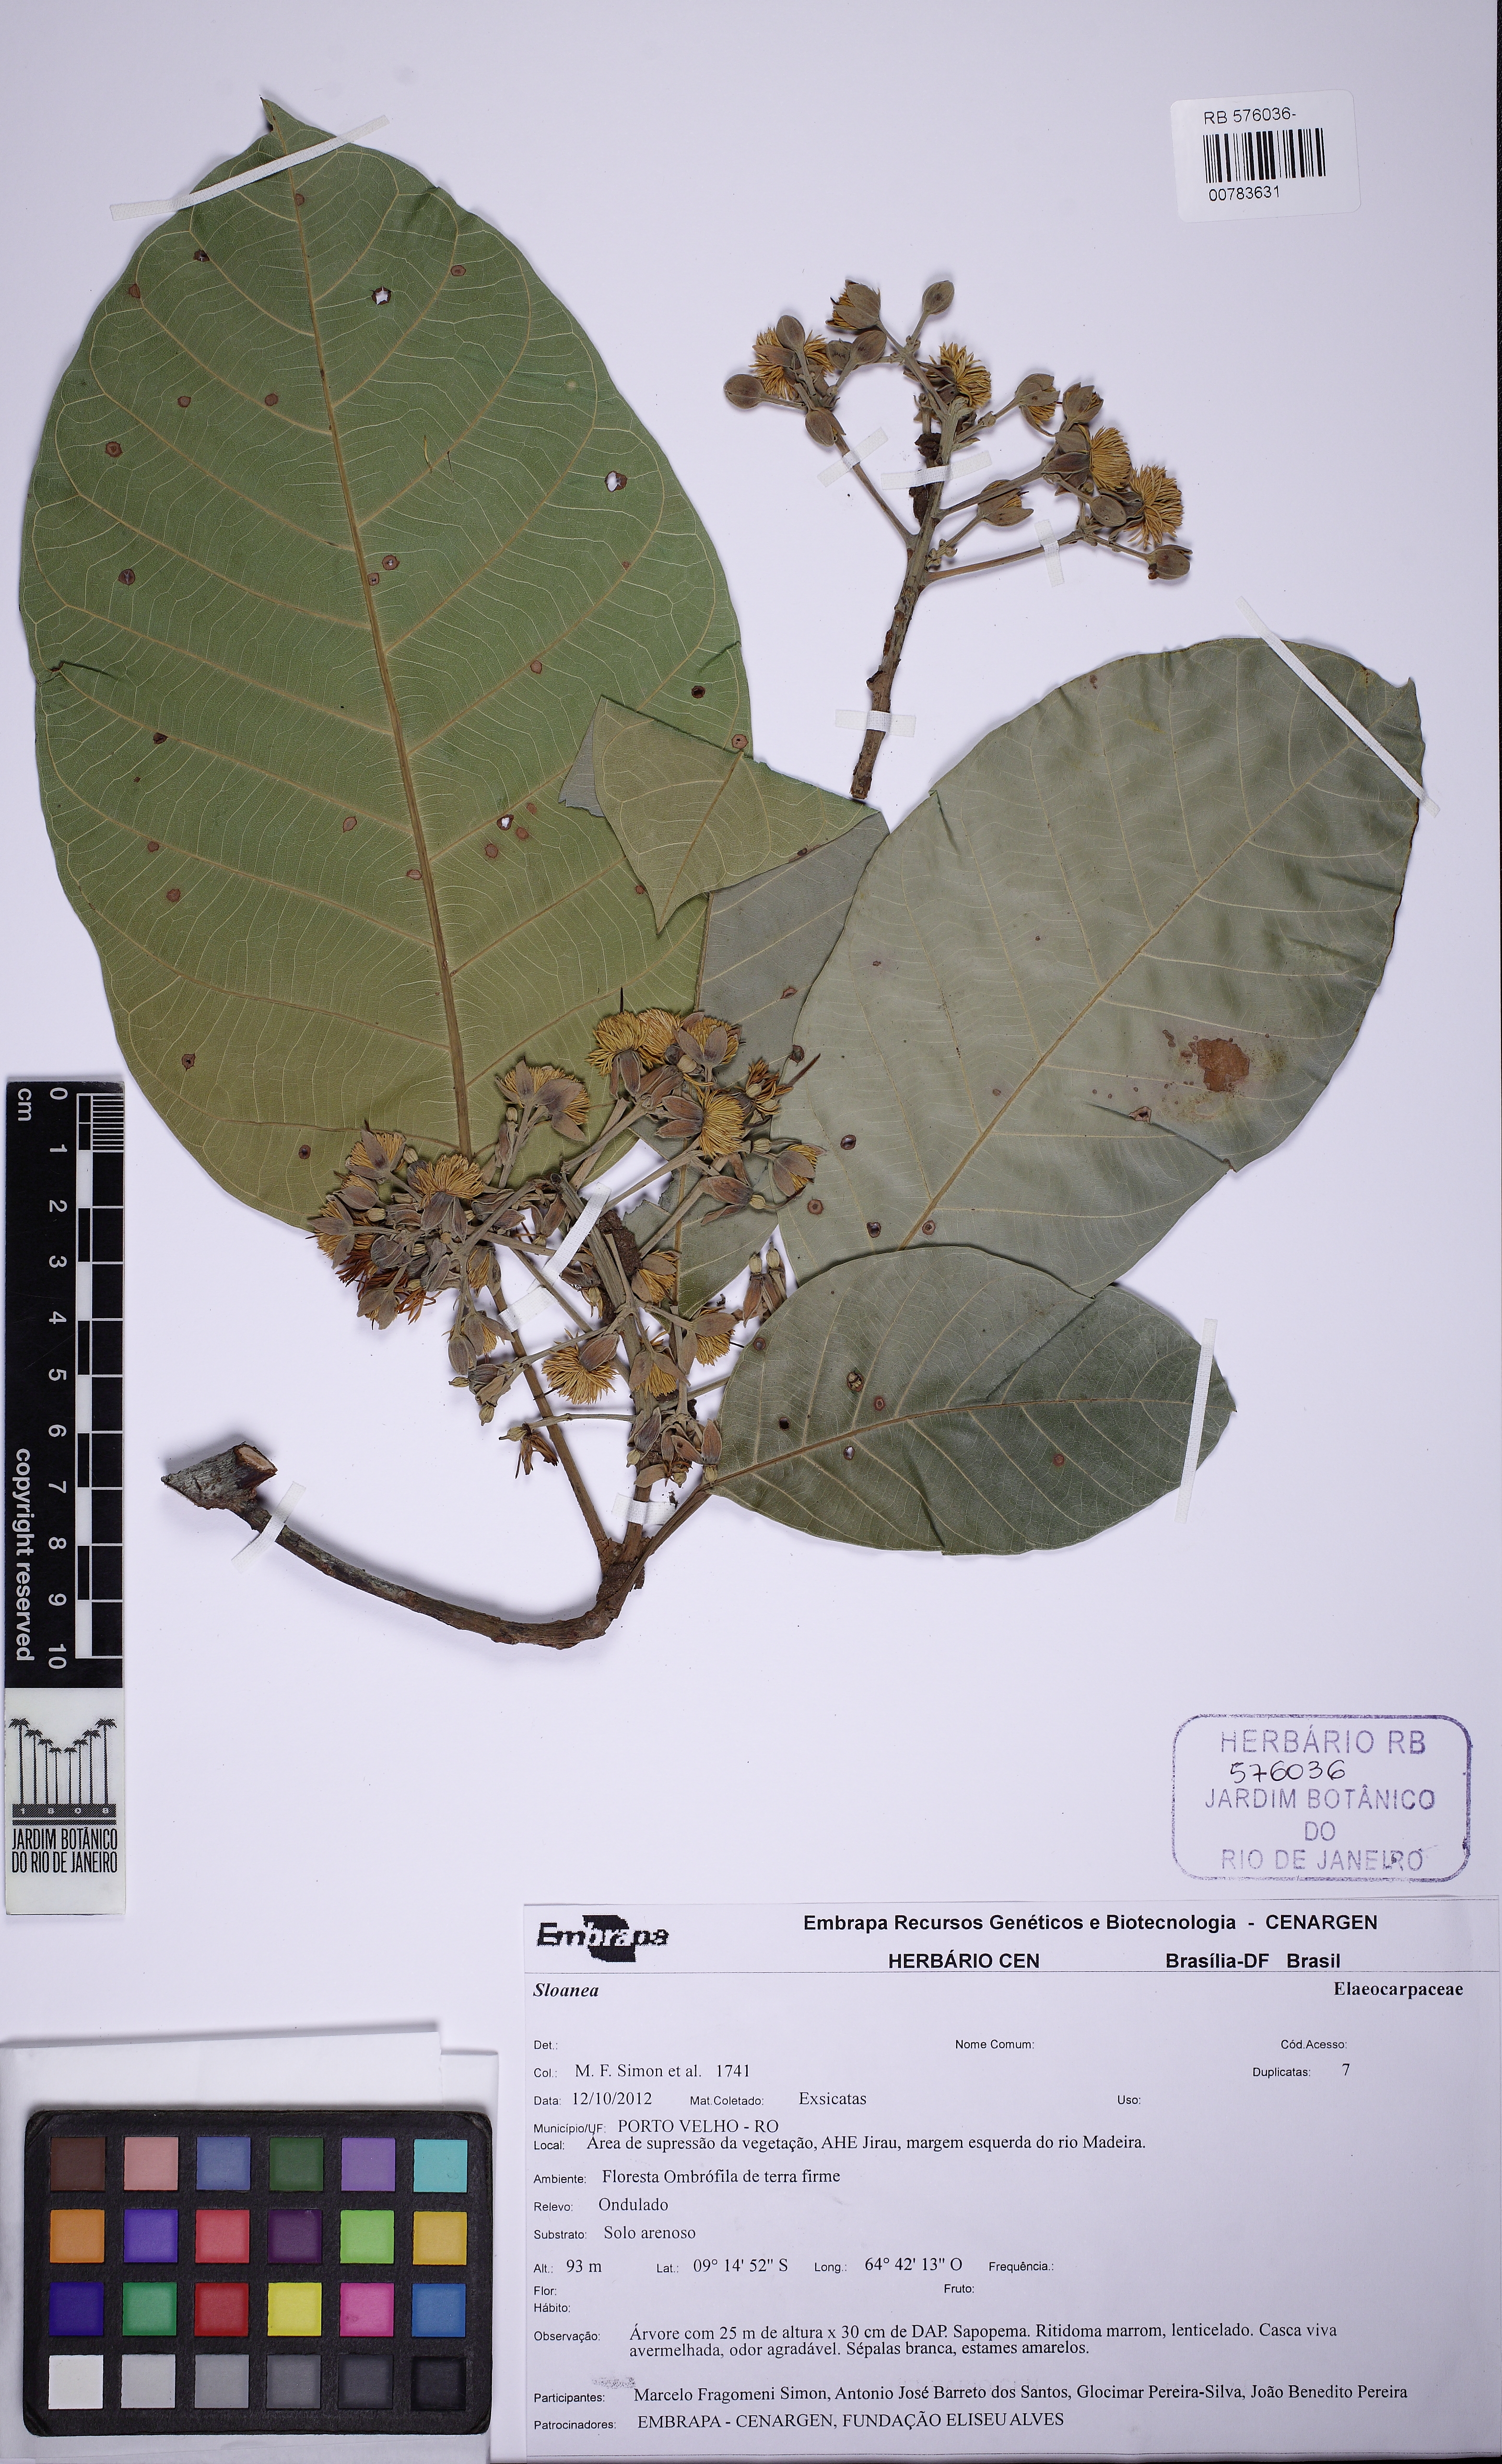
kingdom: Plantae
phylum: Tracheophyta
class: Magnoliopsida
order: Oxalidales
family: Elaeocarpaceae
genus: Sloanea
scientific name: Sloanea latifolia
